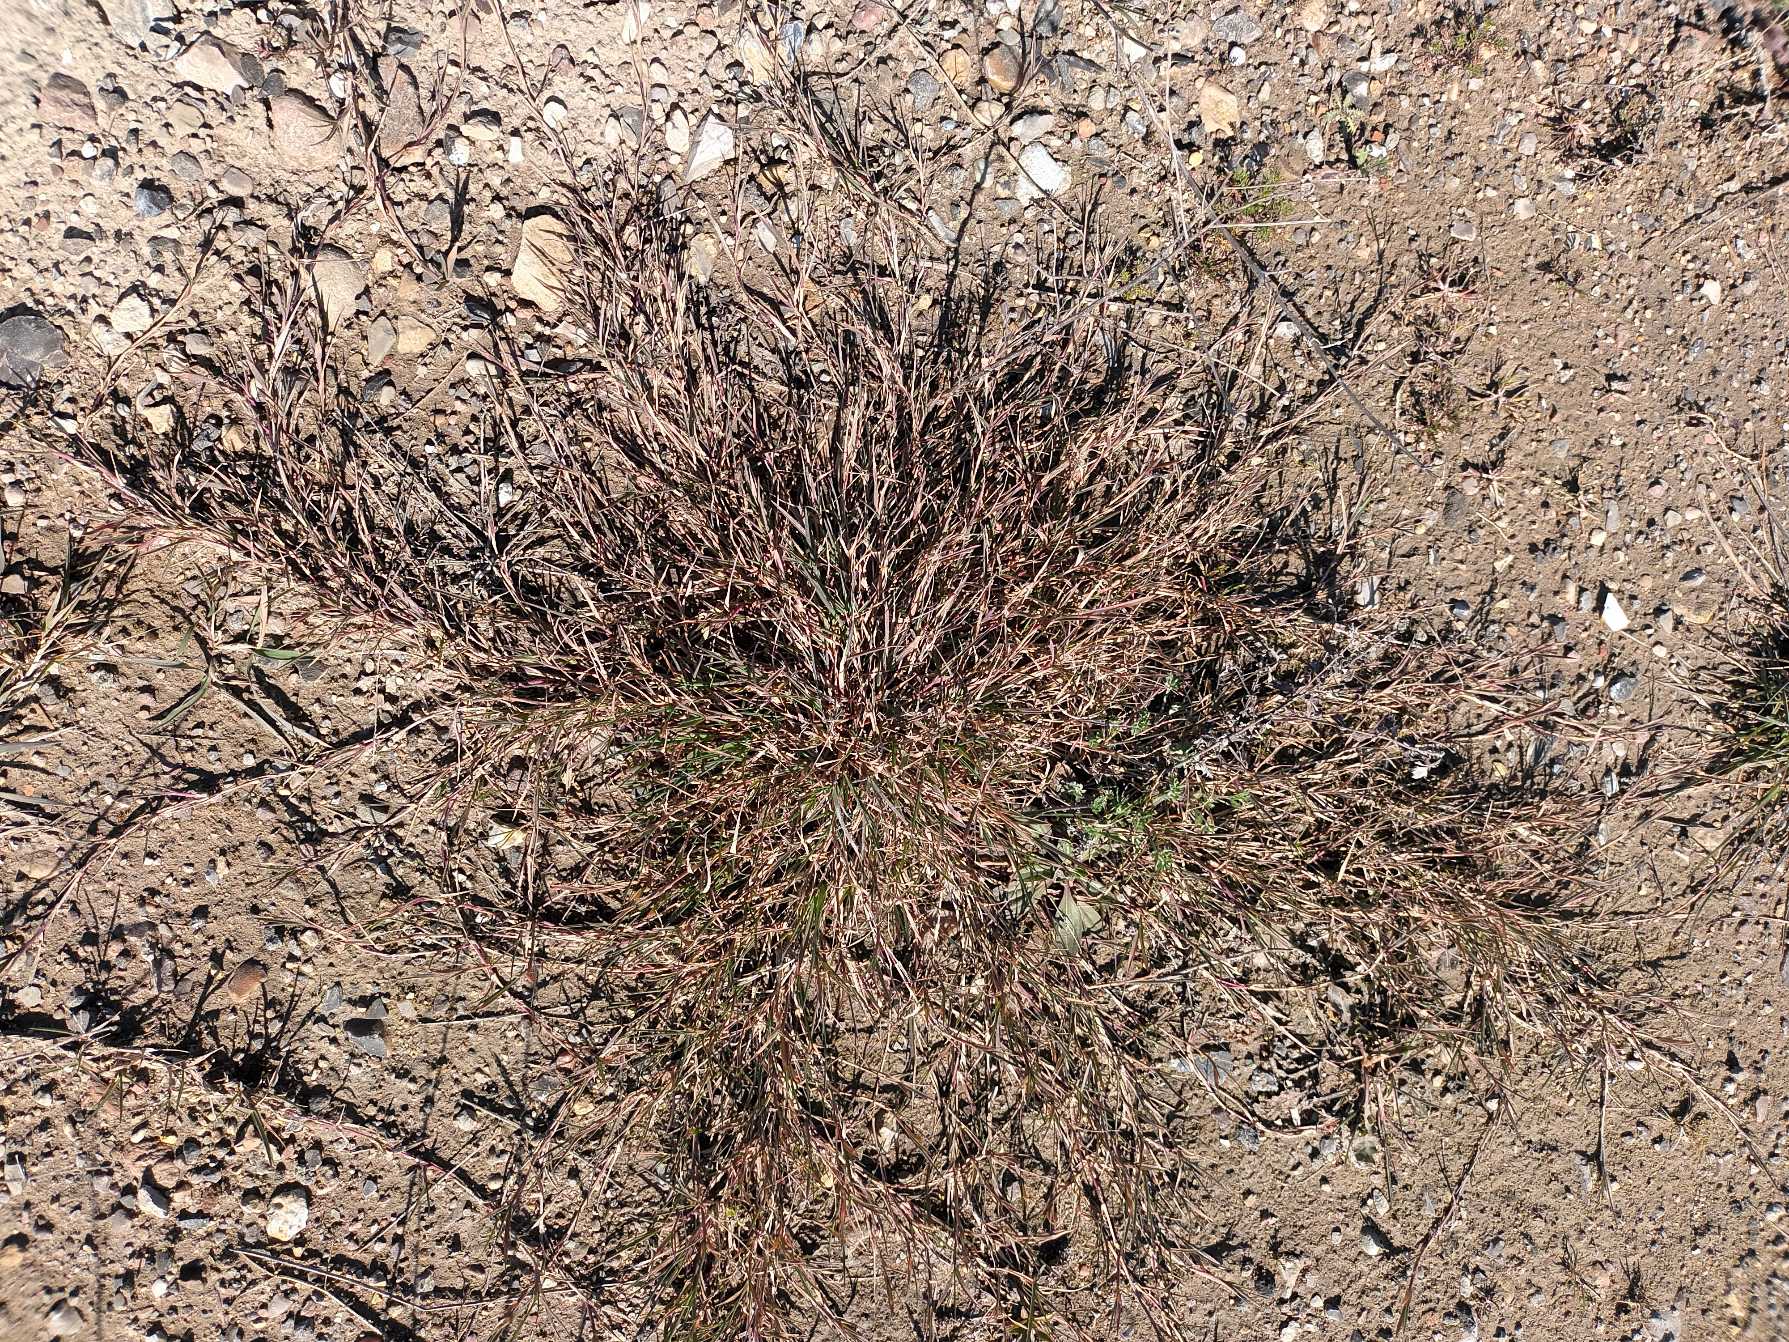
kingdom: Plantae
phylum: Tracheophyta
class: Liliopsida
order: Poales
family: Poaceae
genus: Agrostis
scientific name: Agrostis stolonifera
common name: Kryb-hvene
